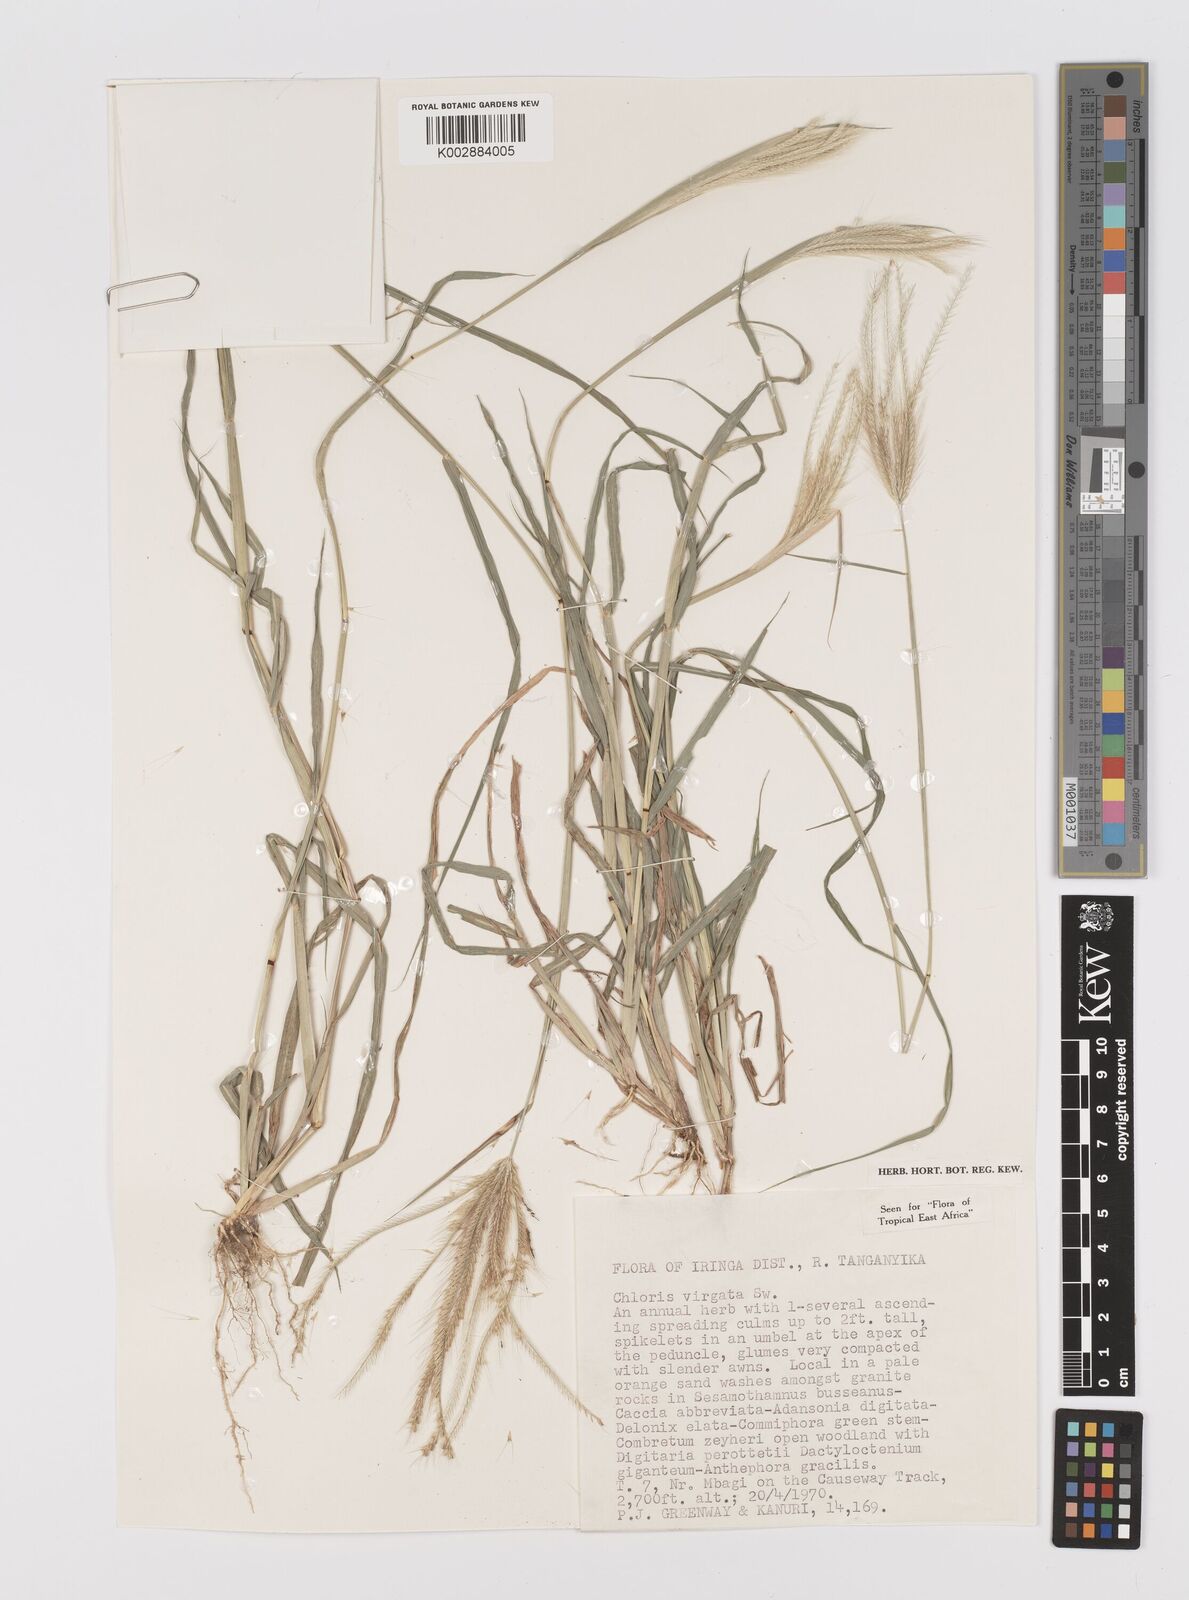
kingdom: Plantae
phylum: Tracheophyta
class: Liliopsida
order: Poales
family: Poaceae
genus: Chloris
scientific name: Chloris virgata
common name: Feathery rhodes-grass
